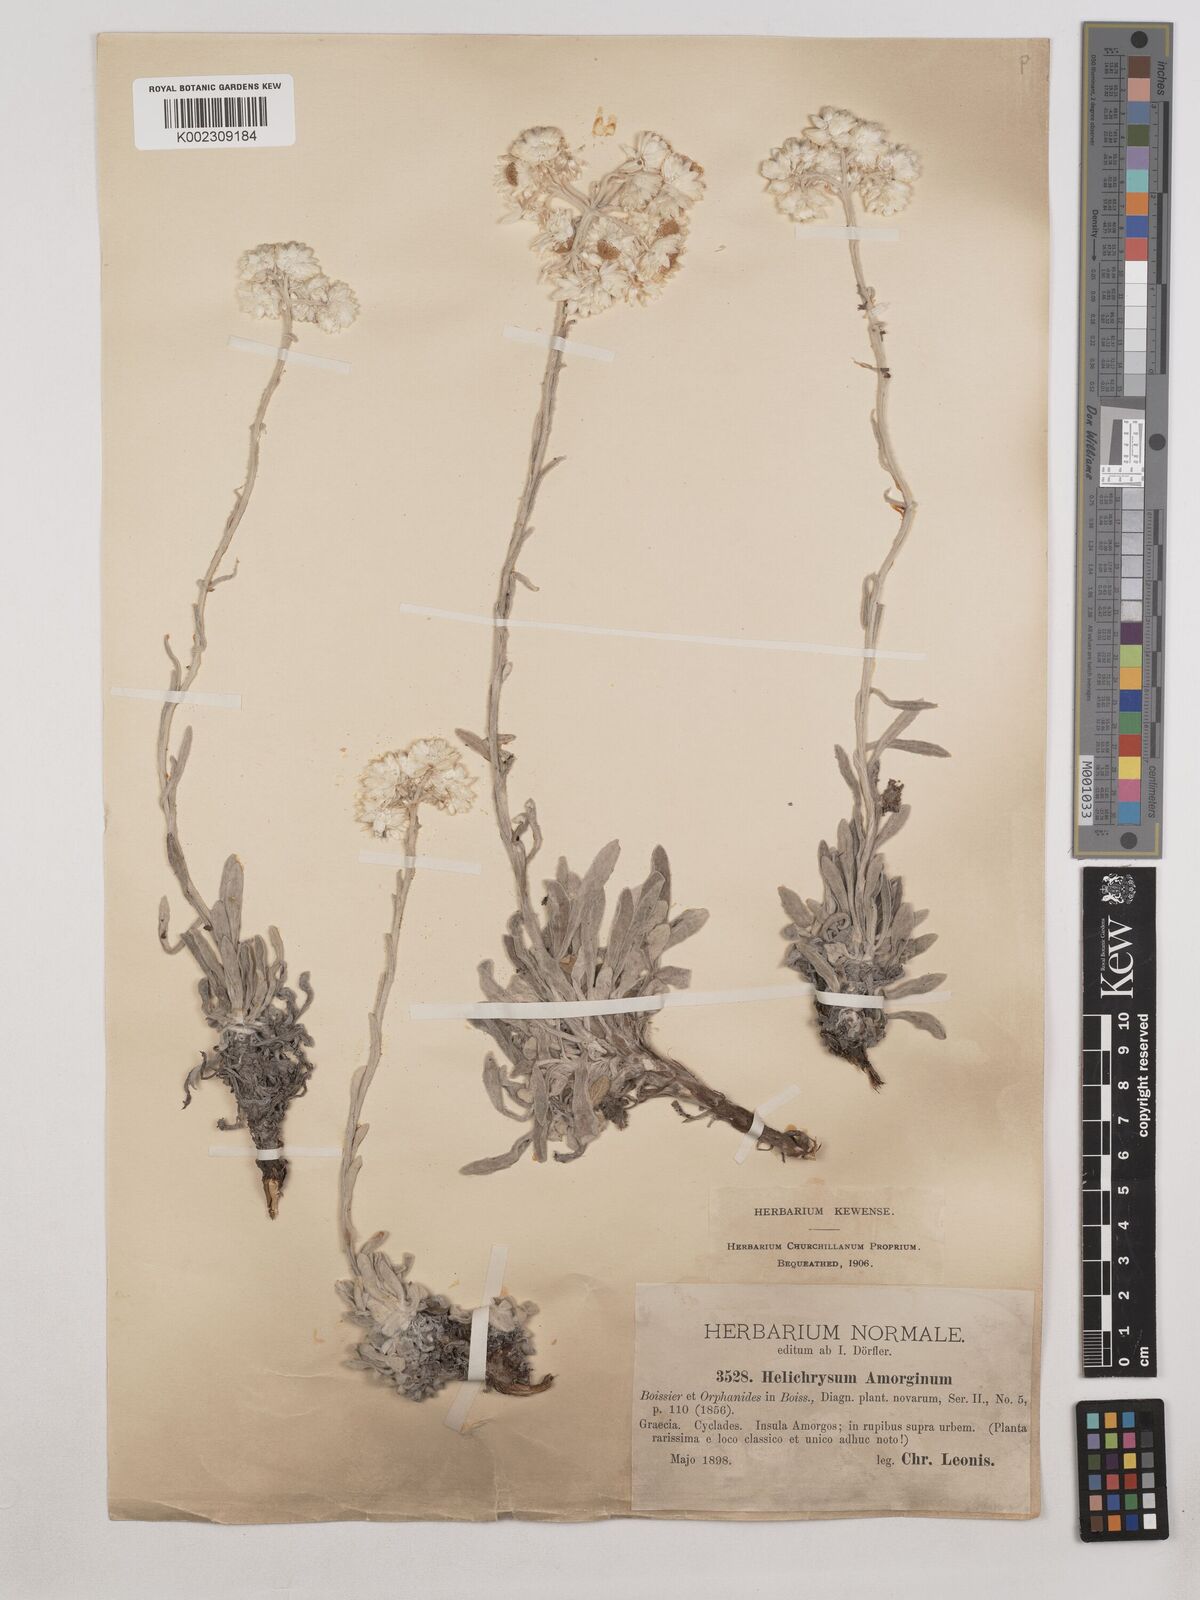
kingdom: Plantae
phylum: Tracheophyta
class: Magnoliopsida
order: Asterales
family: Asteraceae
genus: Helichrysum
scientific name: Helichrysum amorginum
